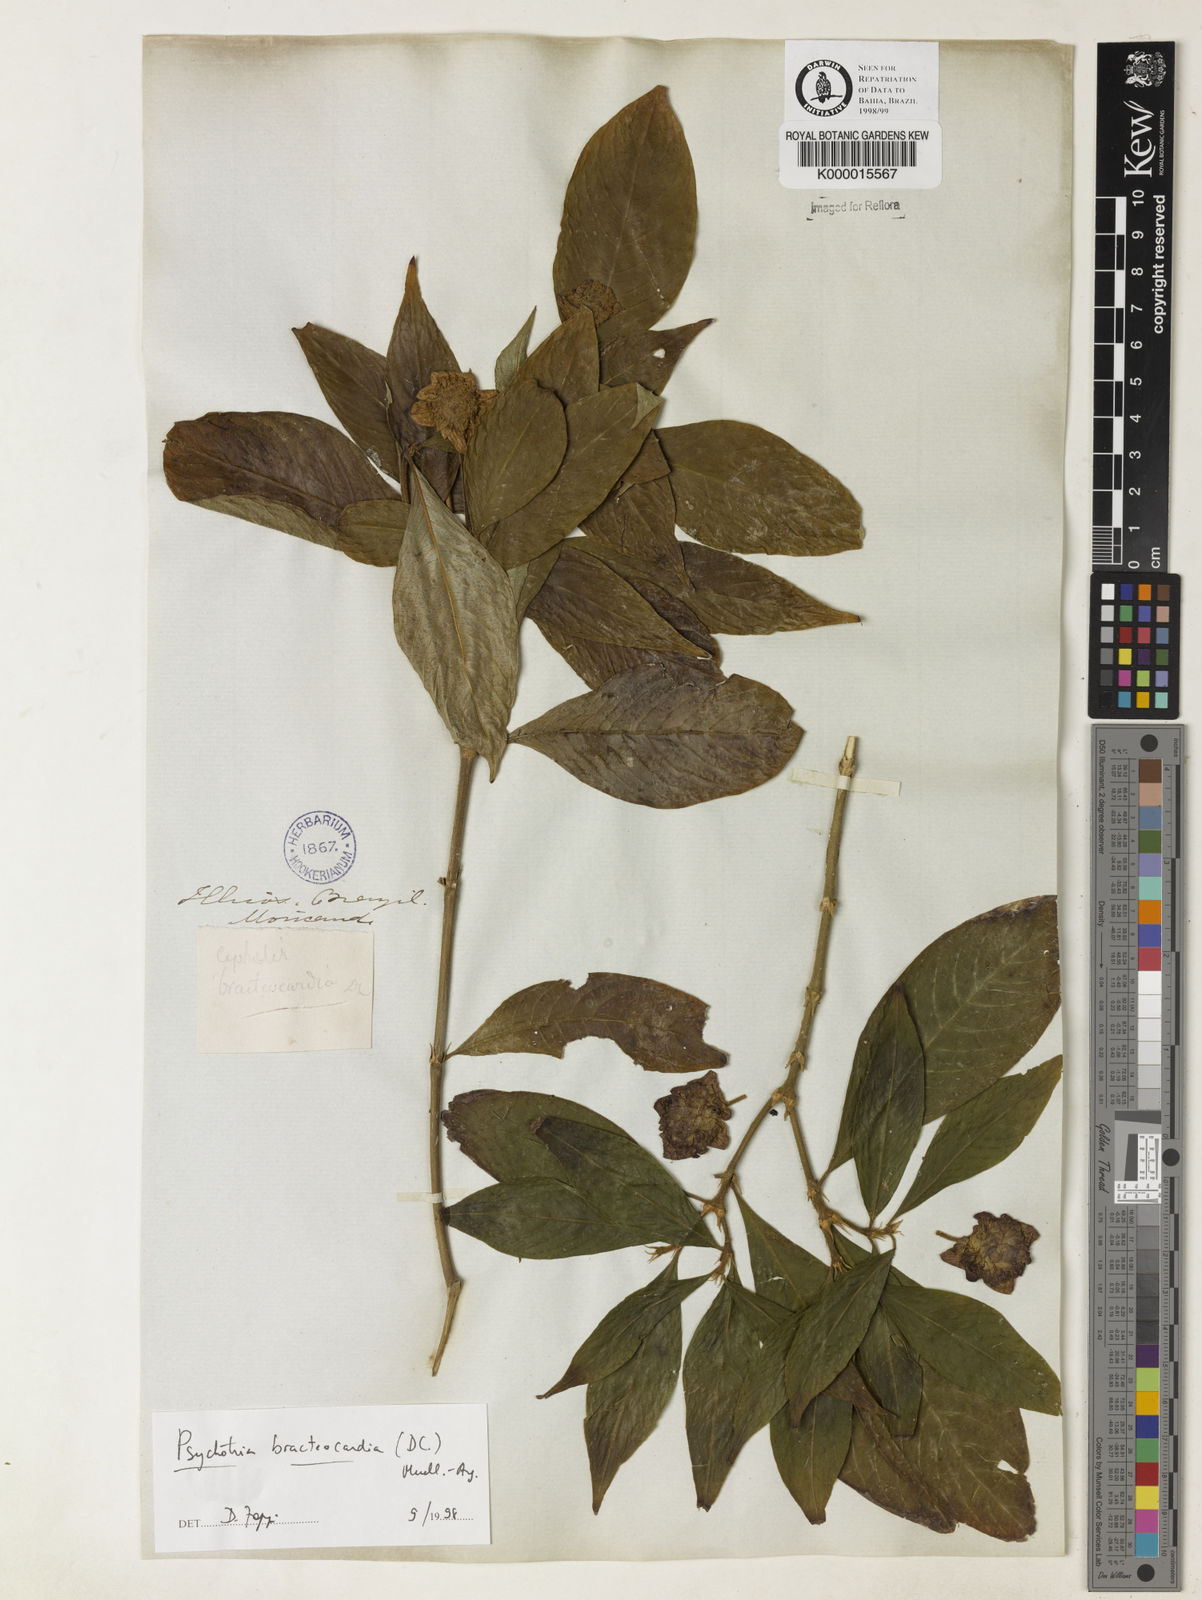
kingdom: Plantae
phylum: Tracheophyta
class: Magnoliopsida
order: Gentianales
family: Rubiaceae
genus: Psychotria
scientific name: Psychotria
